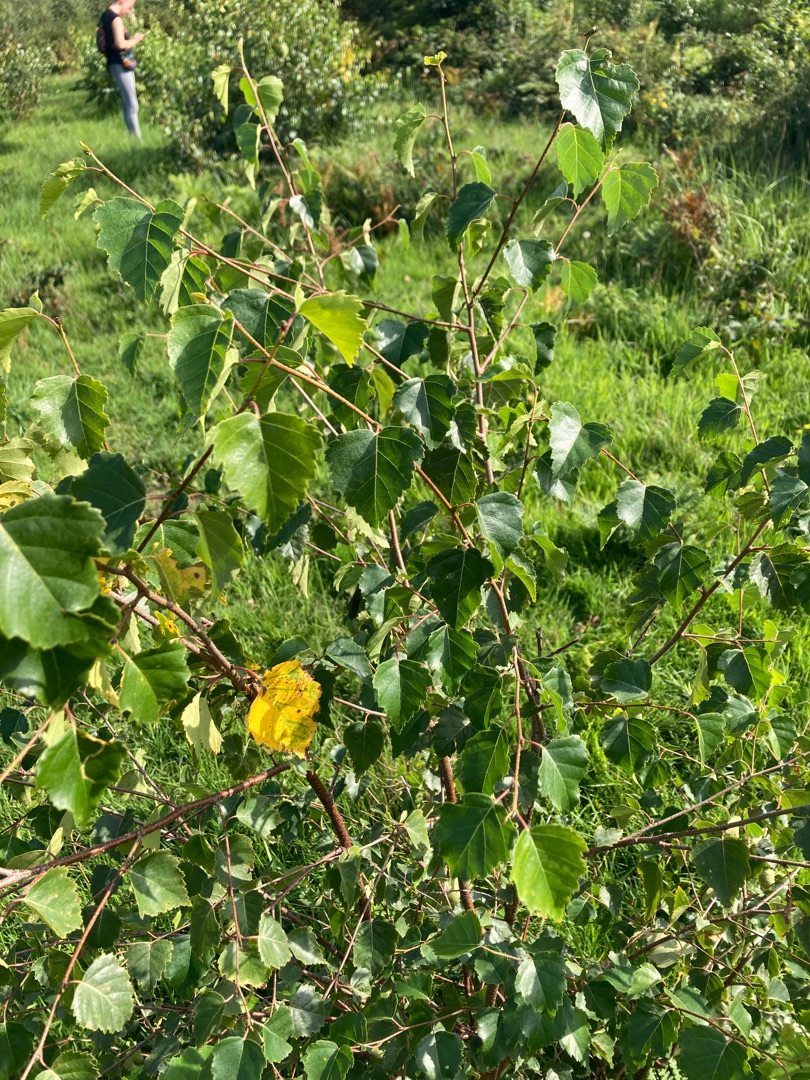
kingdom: Plantae
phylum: Tracheophyta
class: Magnoliopsida
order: Fagales
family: Betulaceae
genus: Betula
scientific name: Betula pendula
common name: Vorte-birk
